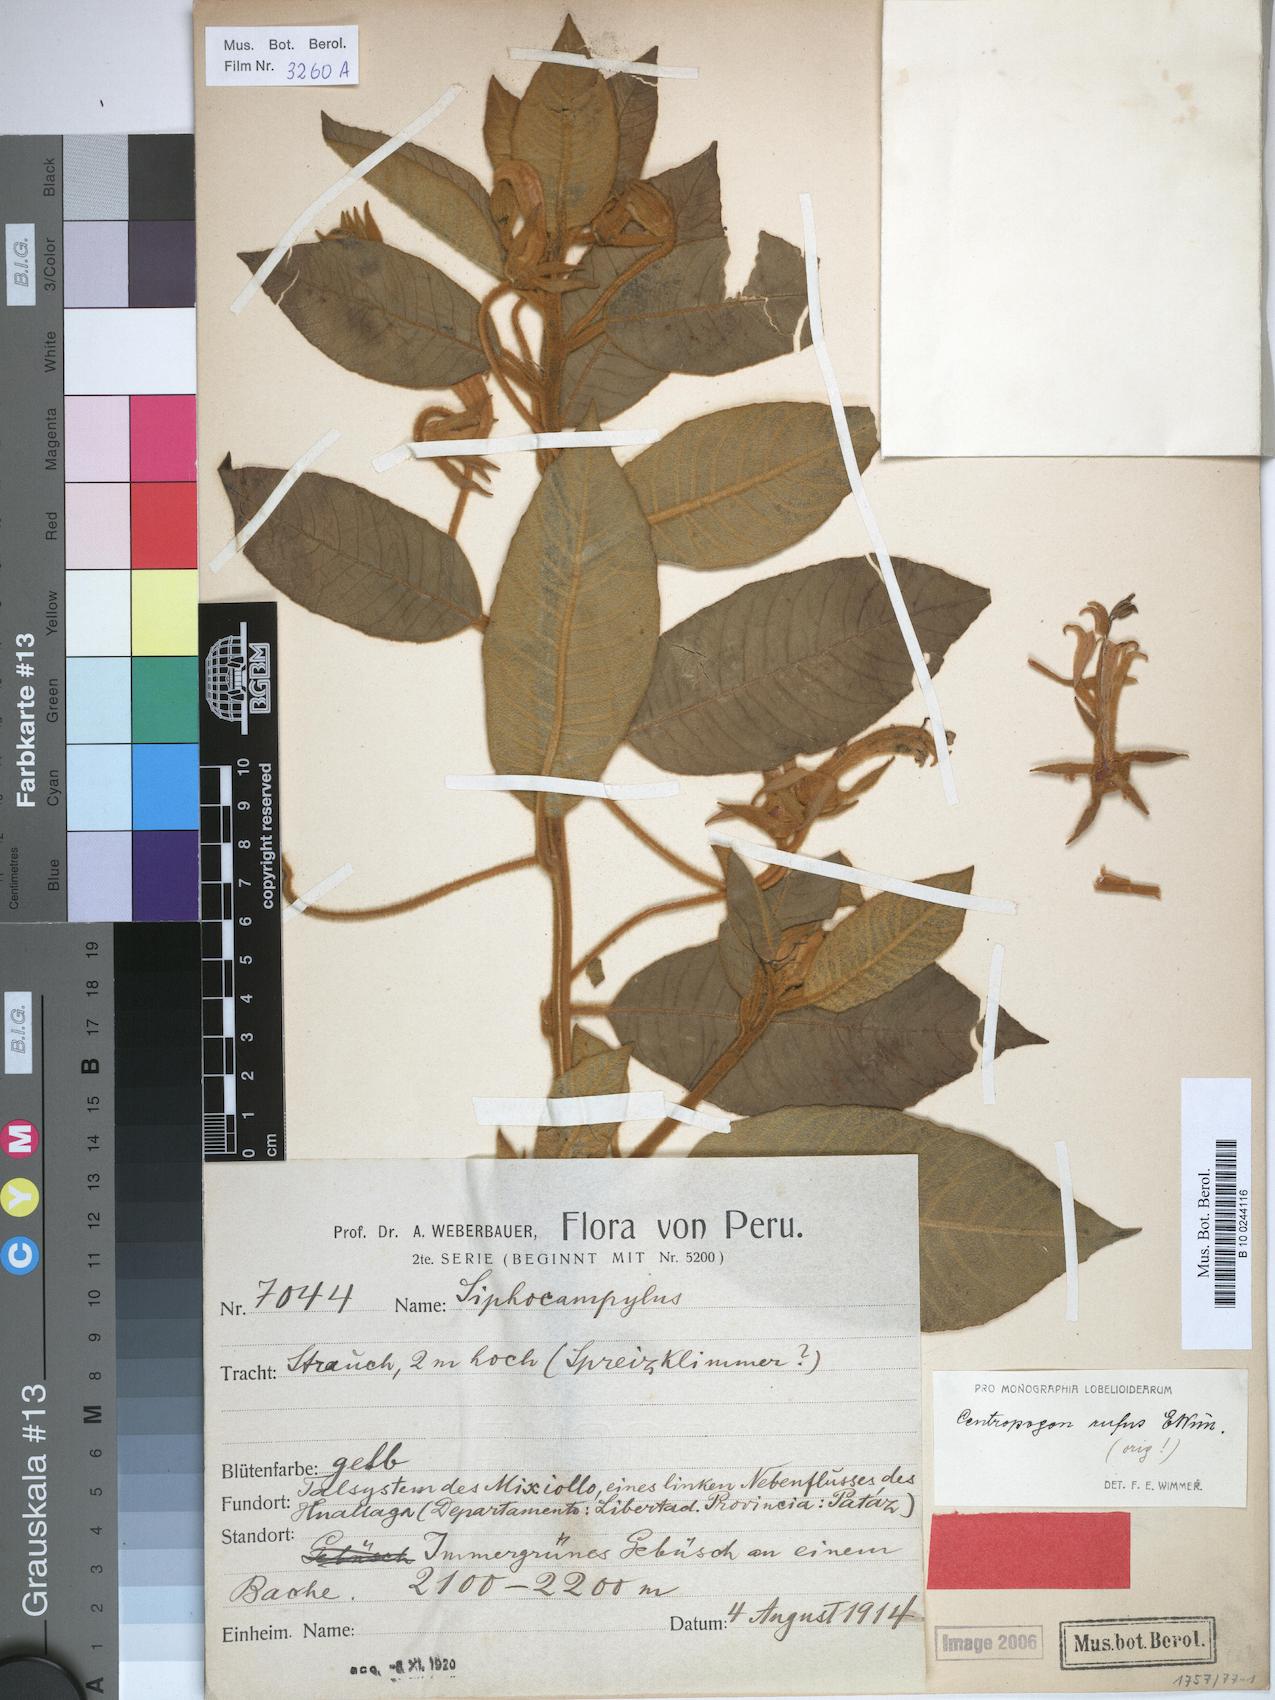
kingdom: Plantae
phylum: Tracheophyta
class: Magnoliopsida
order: Asterales
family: Campanulaceae
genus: Centropogon
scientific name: Centropogon rufus
